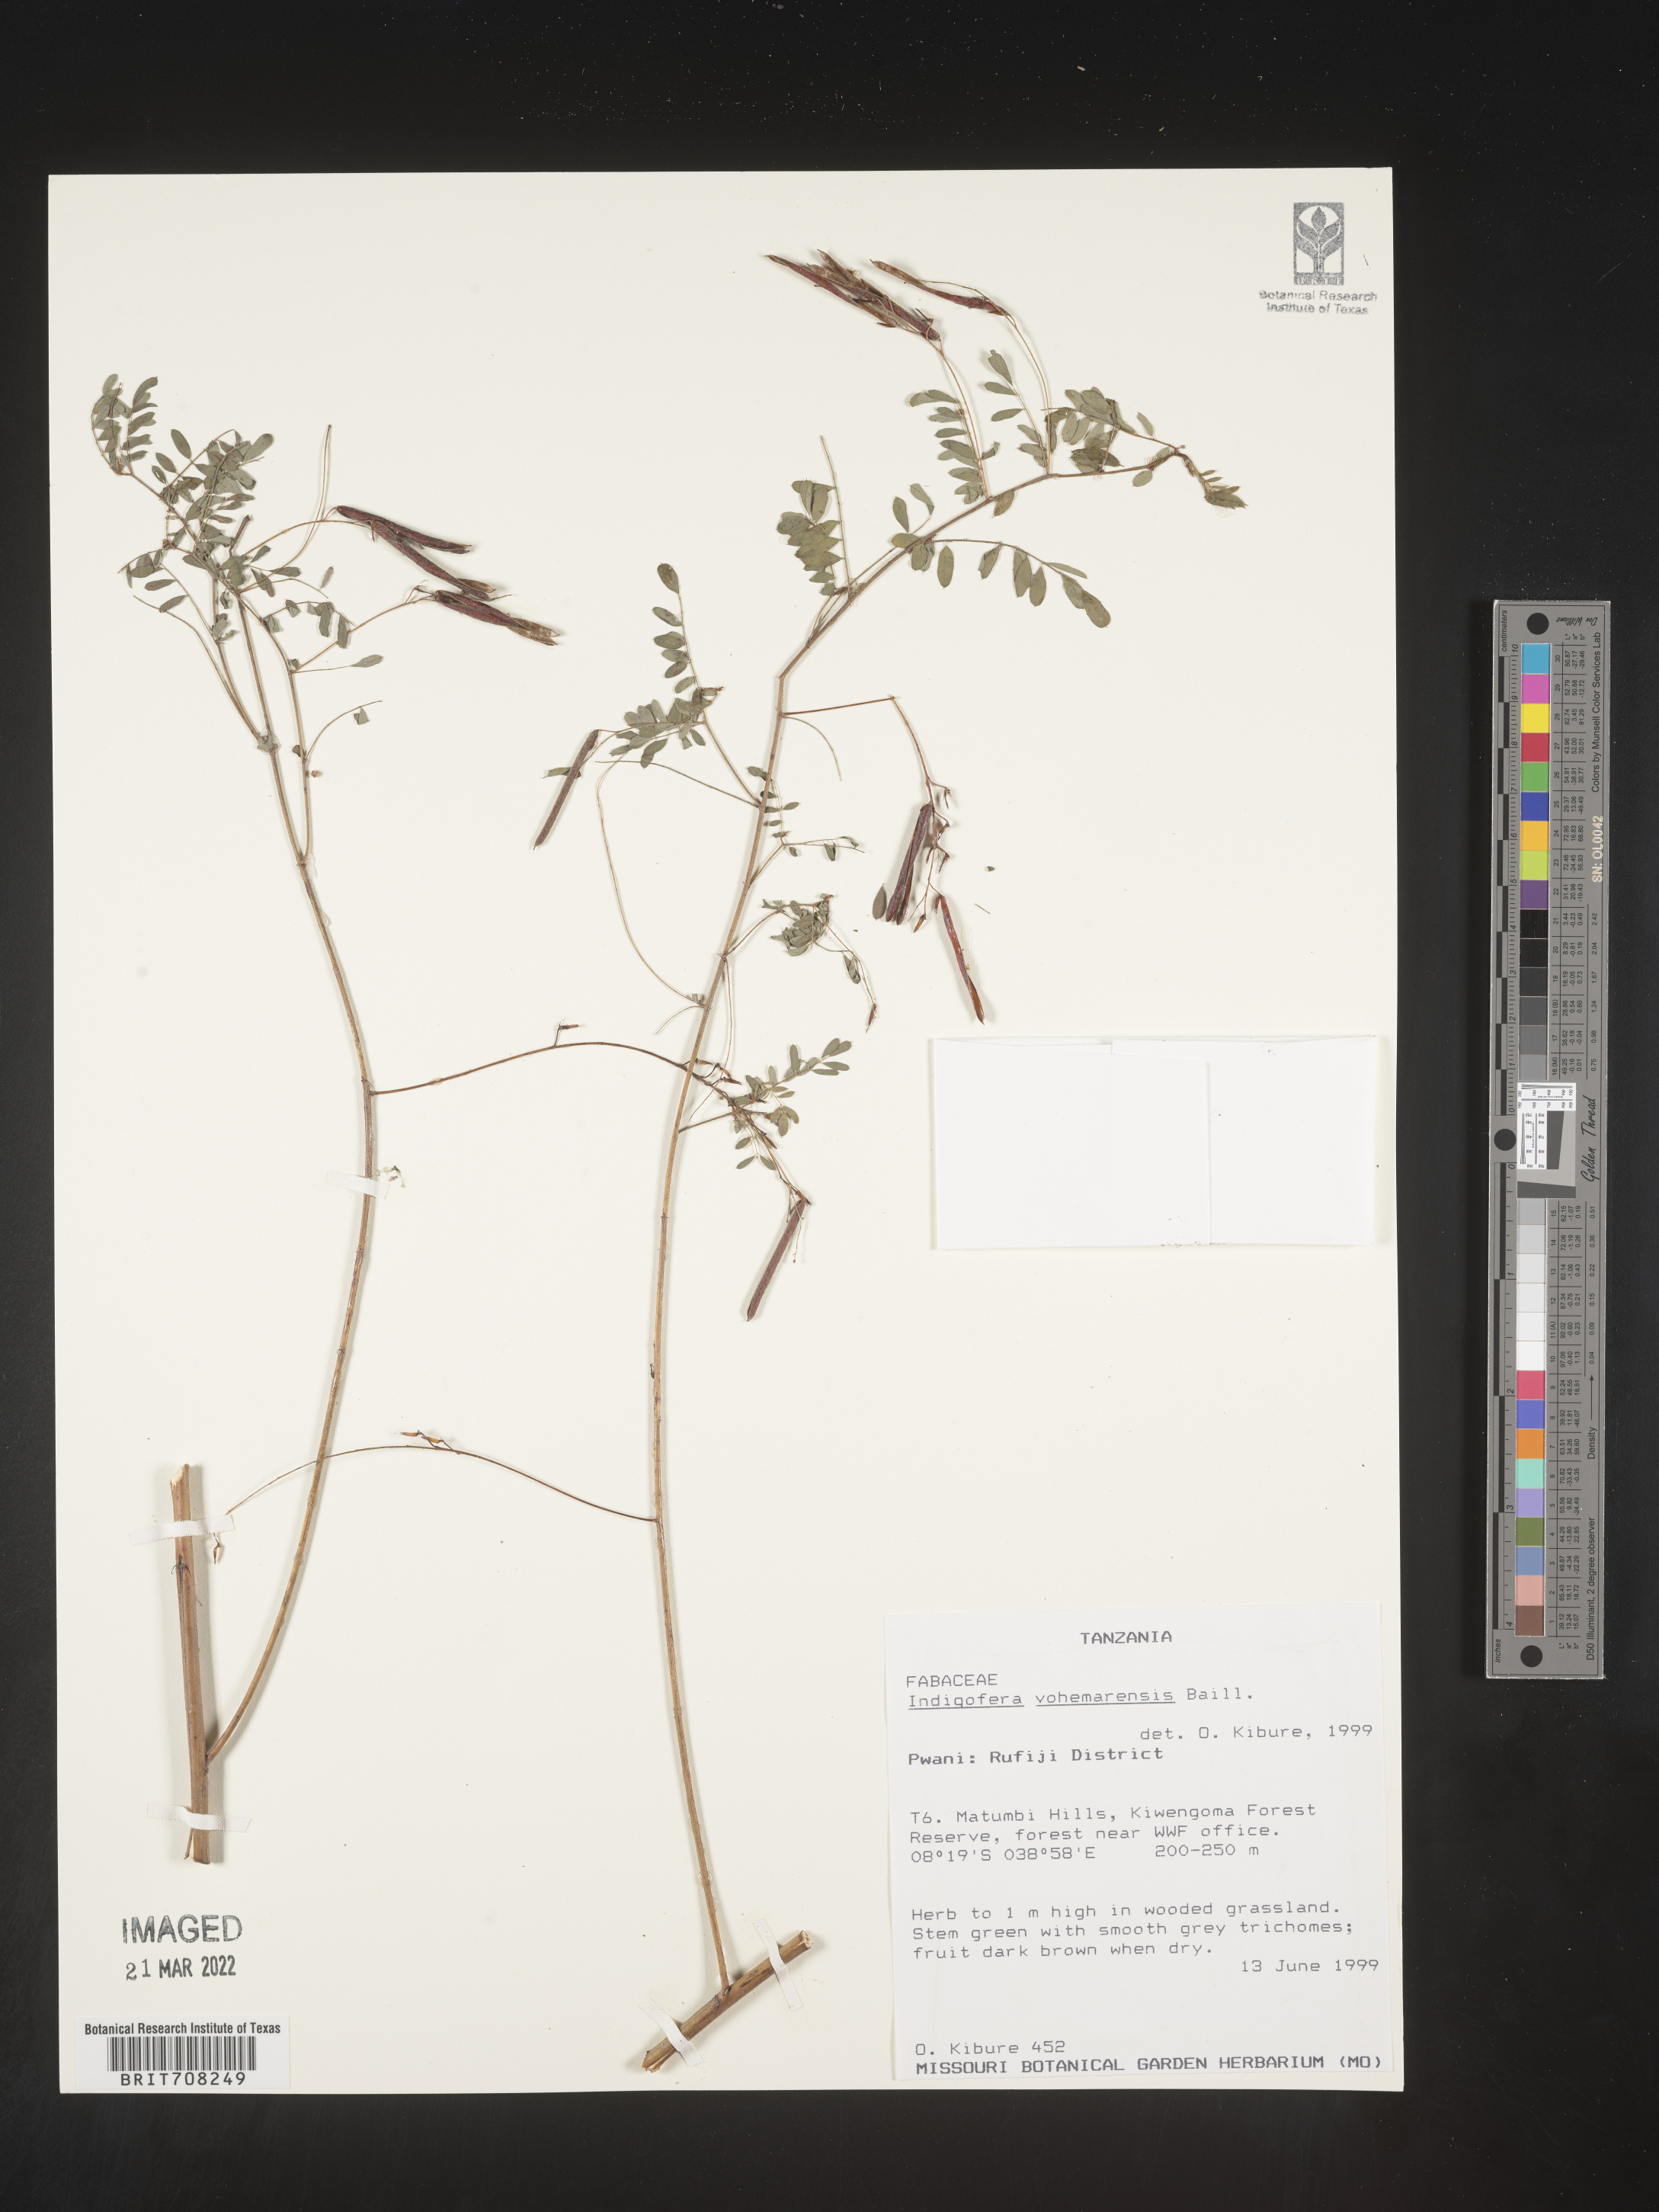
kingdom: Plantae
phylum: Tracheophyta
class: Magnoliopsida
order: Fabales
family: Fabaceae
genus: Indigofera
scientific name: Indigofera
